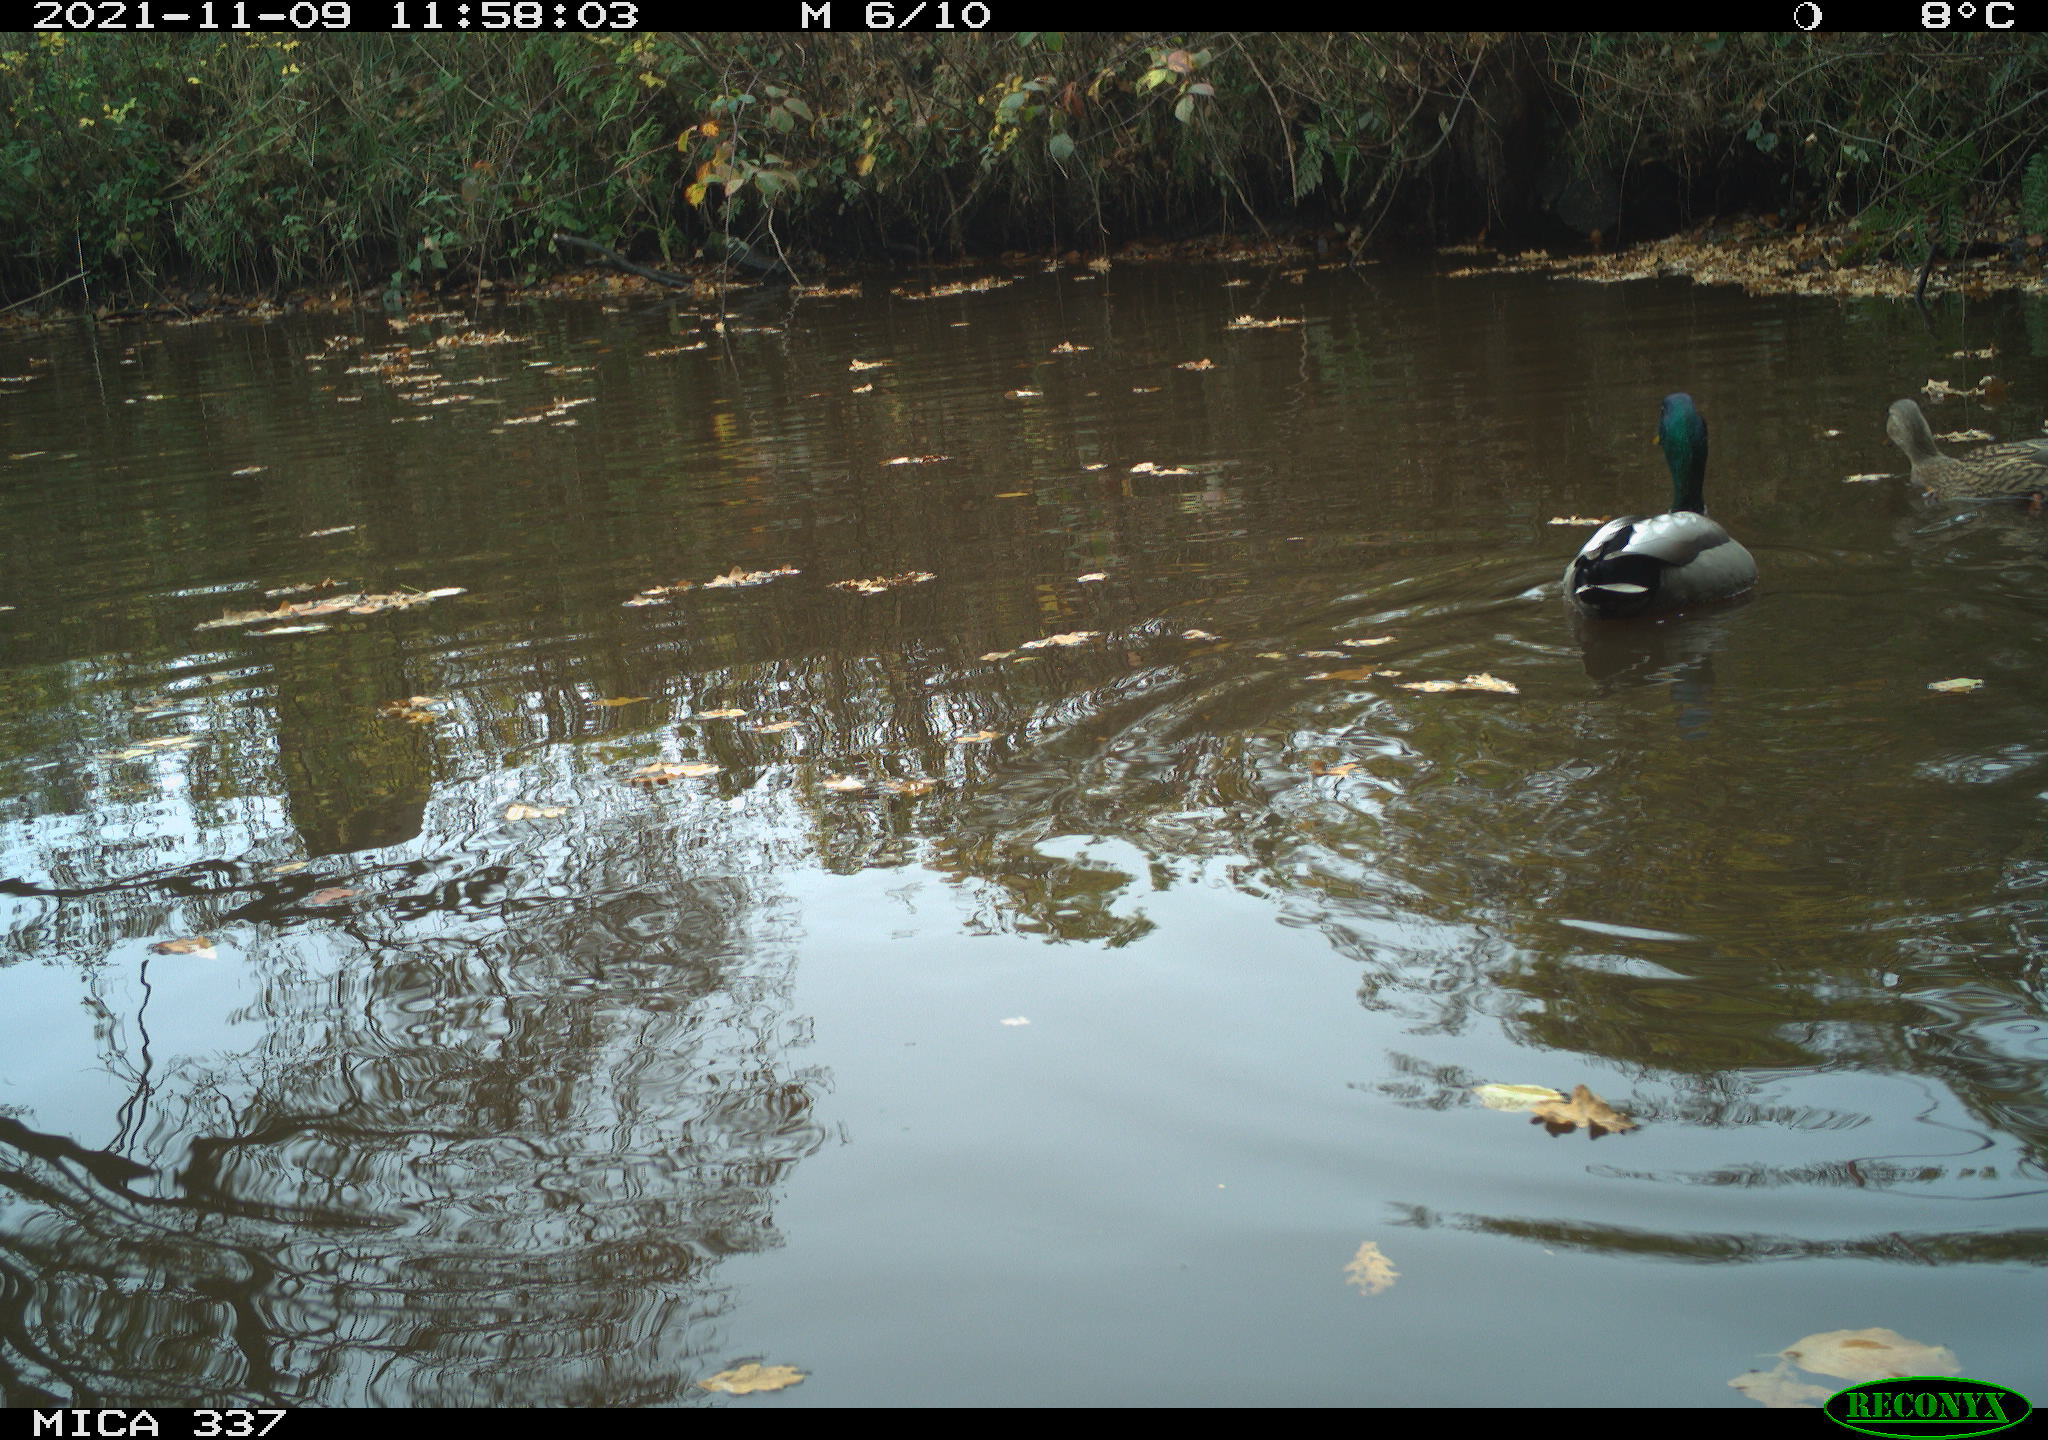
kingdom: Animalia
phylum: Chordata
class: Aves
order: Anseriformes
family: Anatidae
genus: Anas
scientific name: Anas platyrhynchos
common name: Mallard
